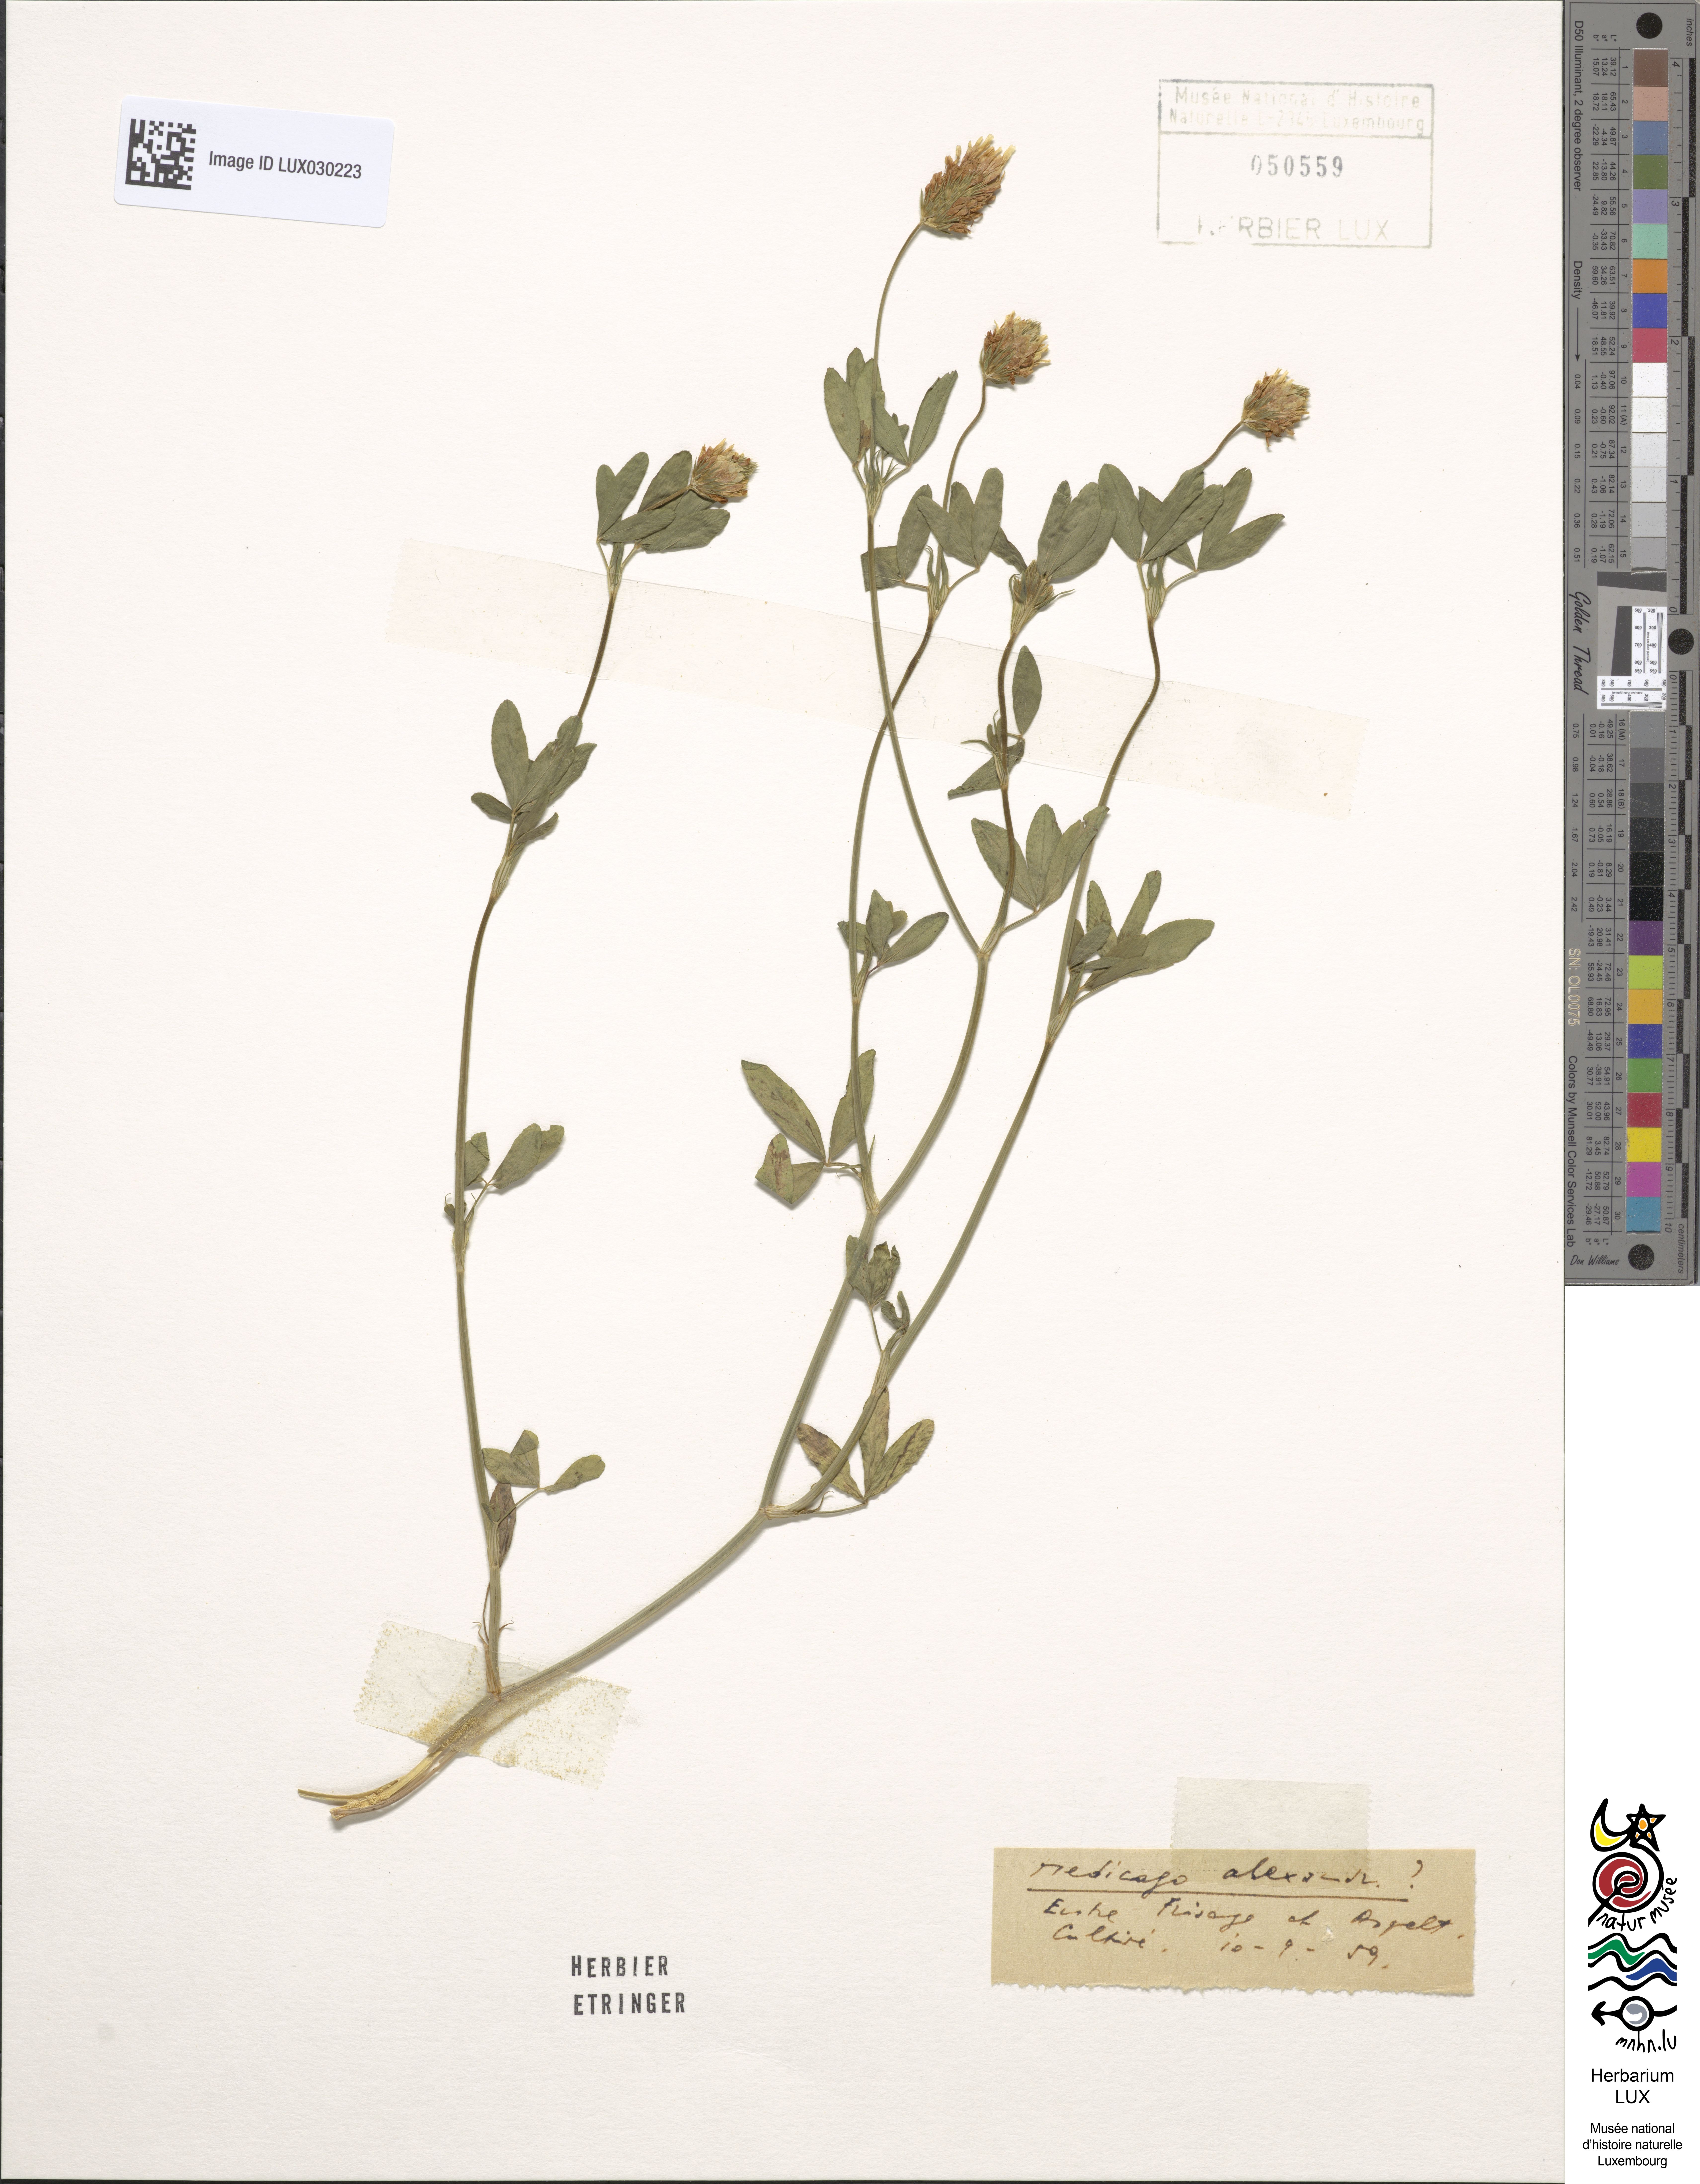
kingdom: Plantae
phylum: Tracheophyta
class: Magnoliopsida
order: Fabales
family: Fabaceae
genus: Trifolium
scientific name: Trifolium alexandrinum
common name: Egyptian clover
